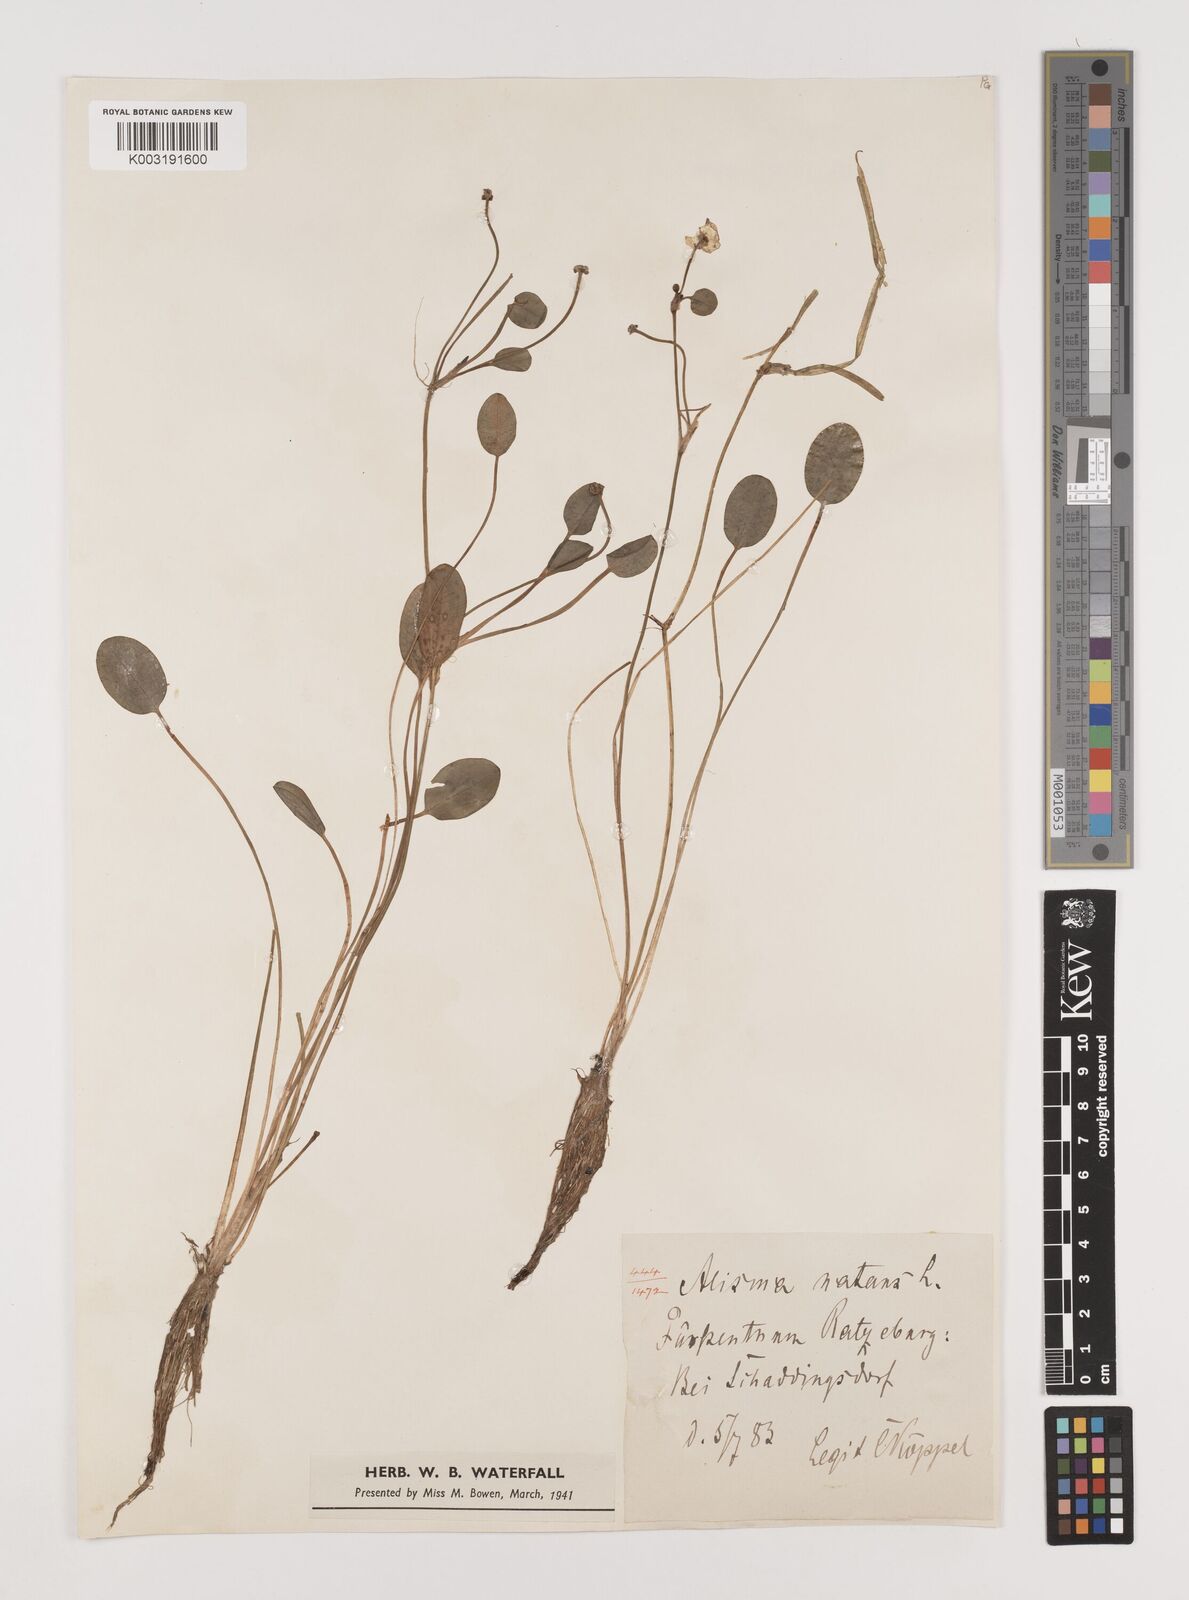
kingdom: Plantae
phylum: Tracheophyta
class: Liliopsida
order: Alismatales
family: Alismataceae
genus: Luronium
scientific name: Luronium natans
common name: Floating water-plantain
